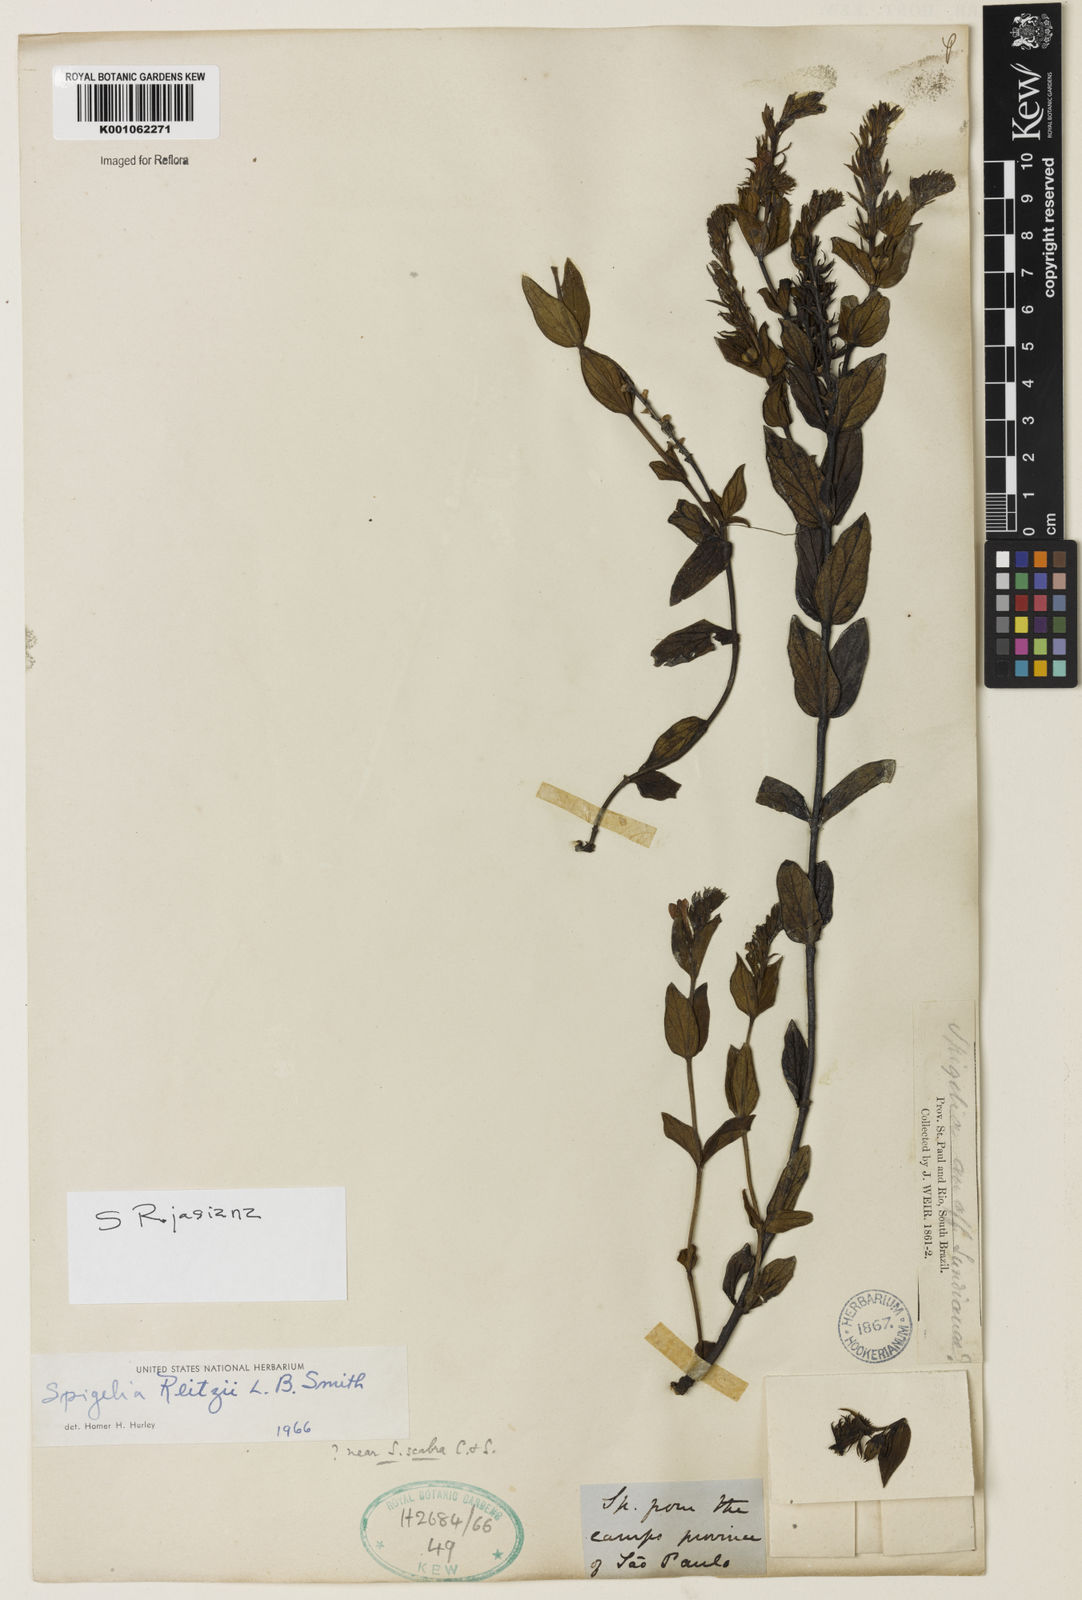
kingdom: Plantae
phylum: Tracheophyta
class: Magnoliopsida
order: Gentianales
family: Loganiaceae
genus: Spigelia
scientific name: Spigelia rojasiana
